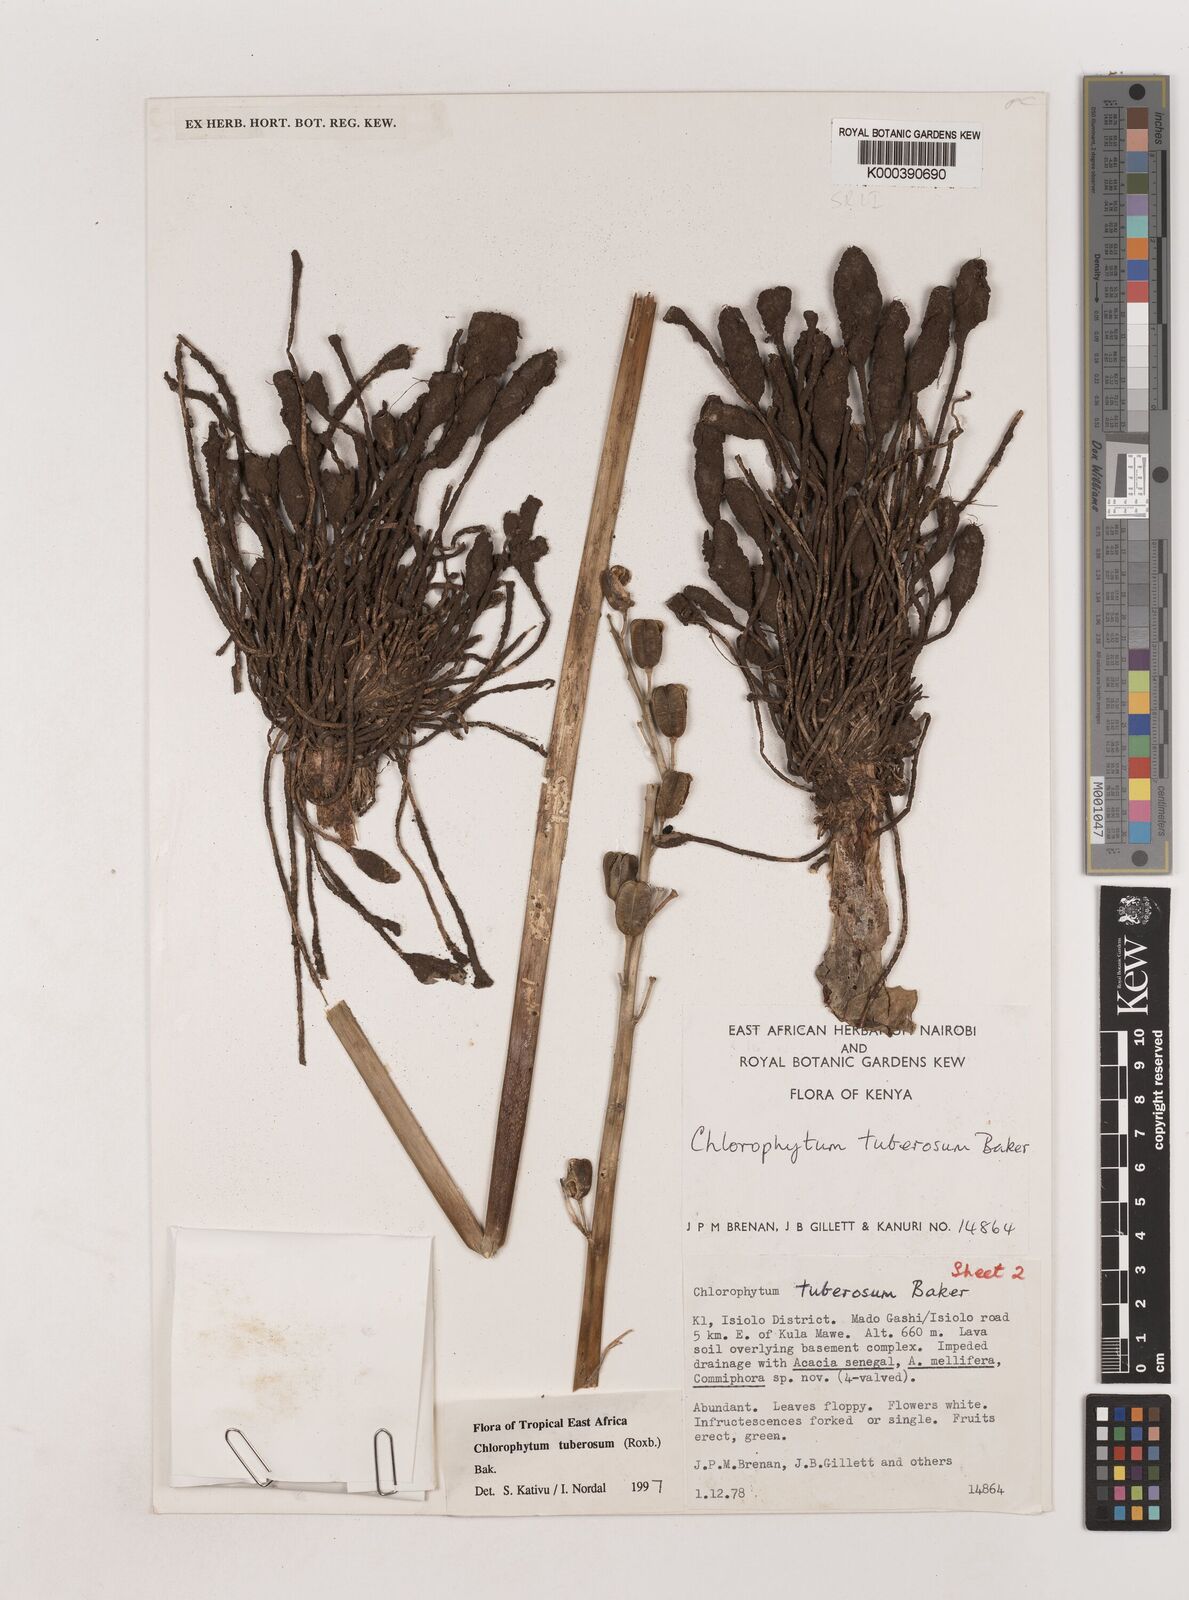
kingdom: Plantae
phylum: Tracheophyta
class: Liliopsida
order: Asparagales
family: Asparagaceae
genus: Chlorophytum
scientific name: Chlorophytum tuberosum
